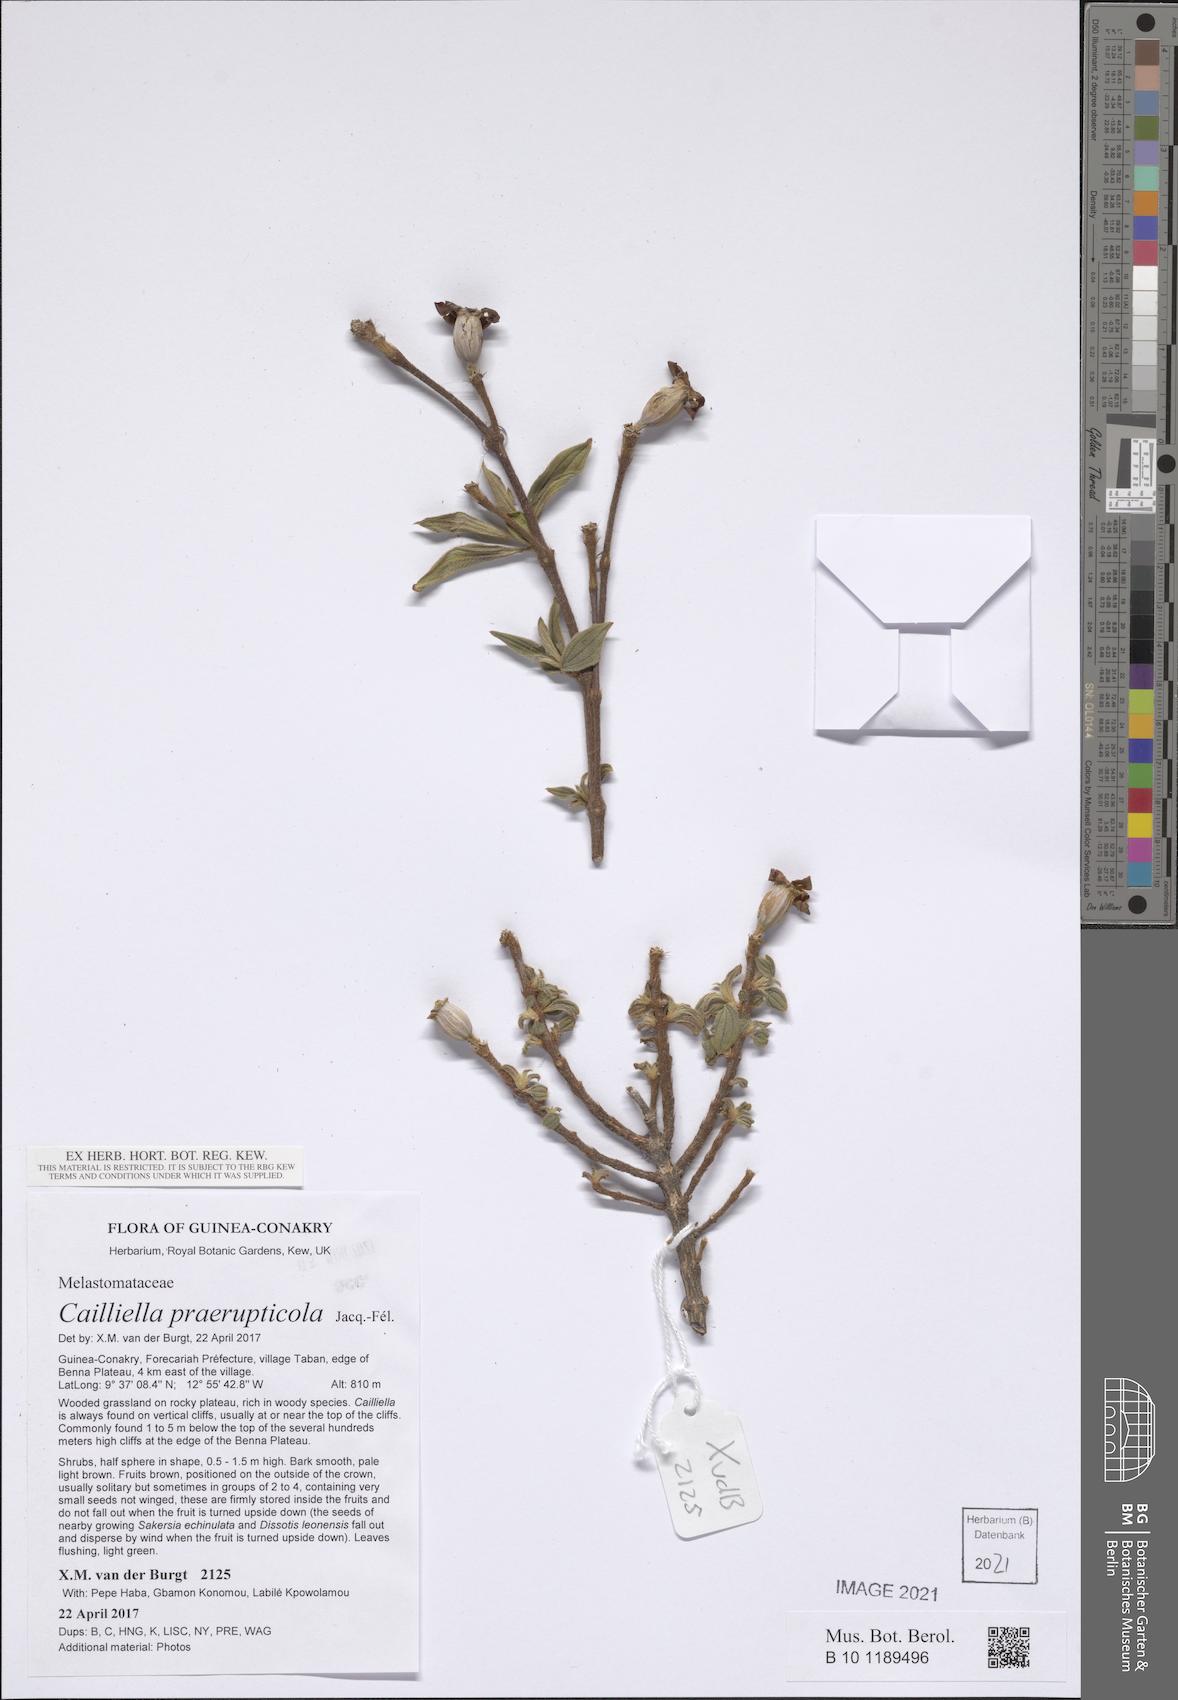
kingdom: Plantae
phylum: Tracheophyta
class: Magnoliopsida
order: Myrtales
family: Melastomataceae
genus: Cailliella
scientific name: Cailliella praerupticola
